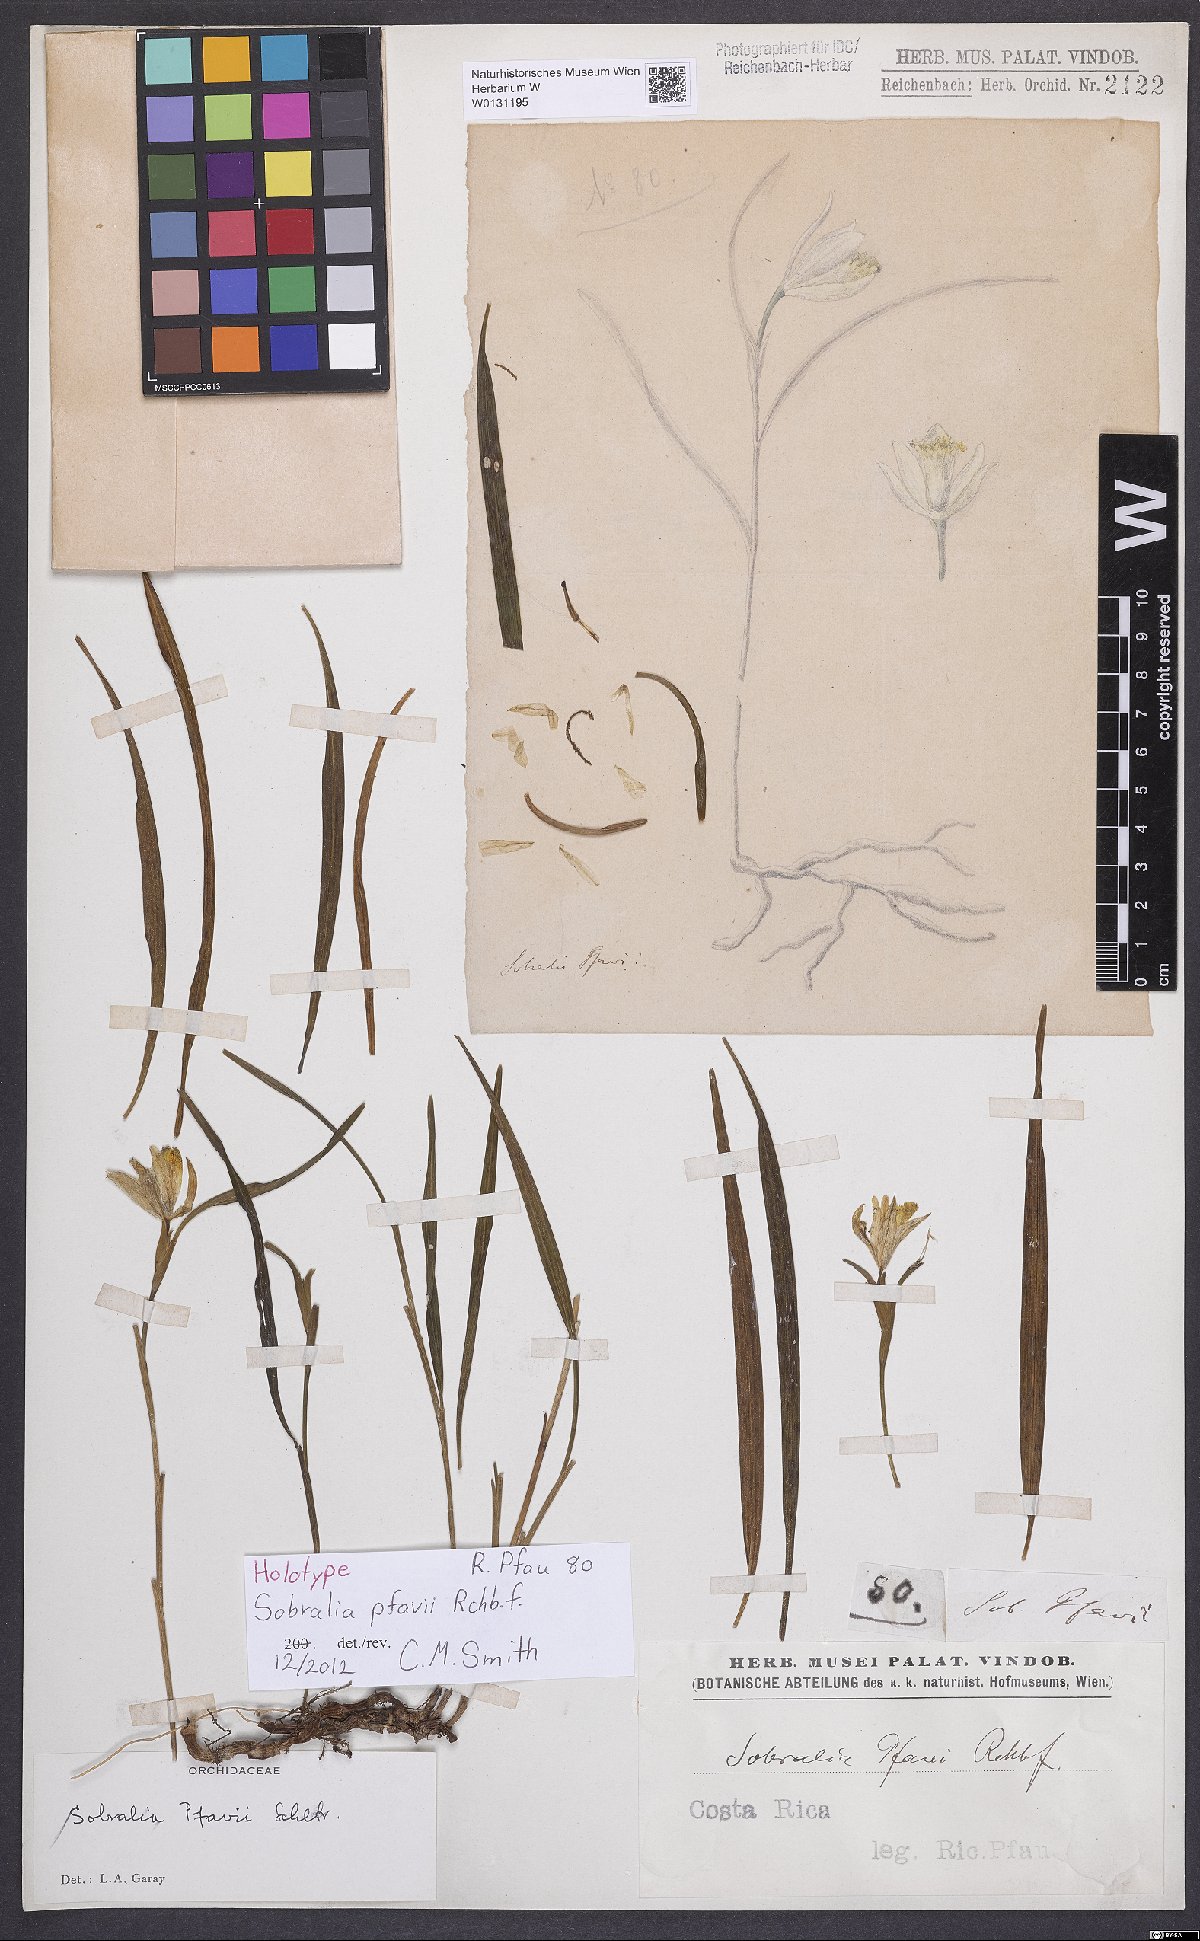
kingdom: Plantae
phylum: Tracheophyta
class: Liliopsida
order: Asparagales
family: Orchidaceae
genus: Sobralia
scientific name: Sobralia pfavii
